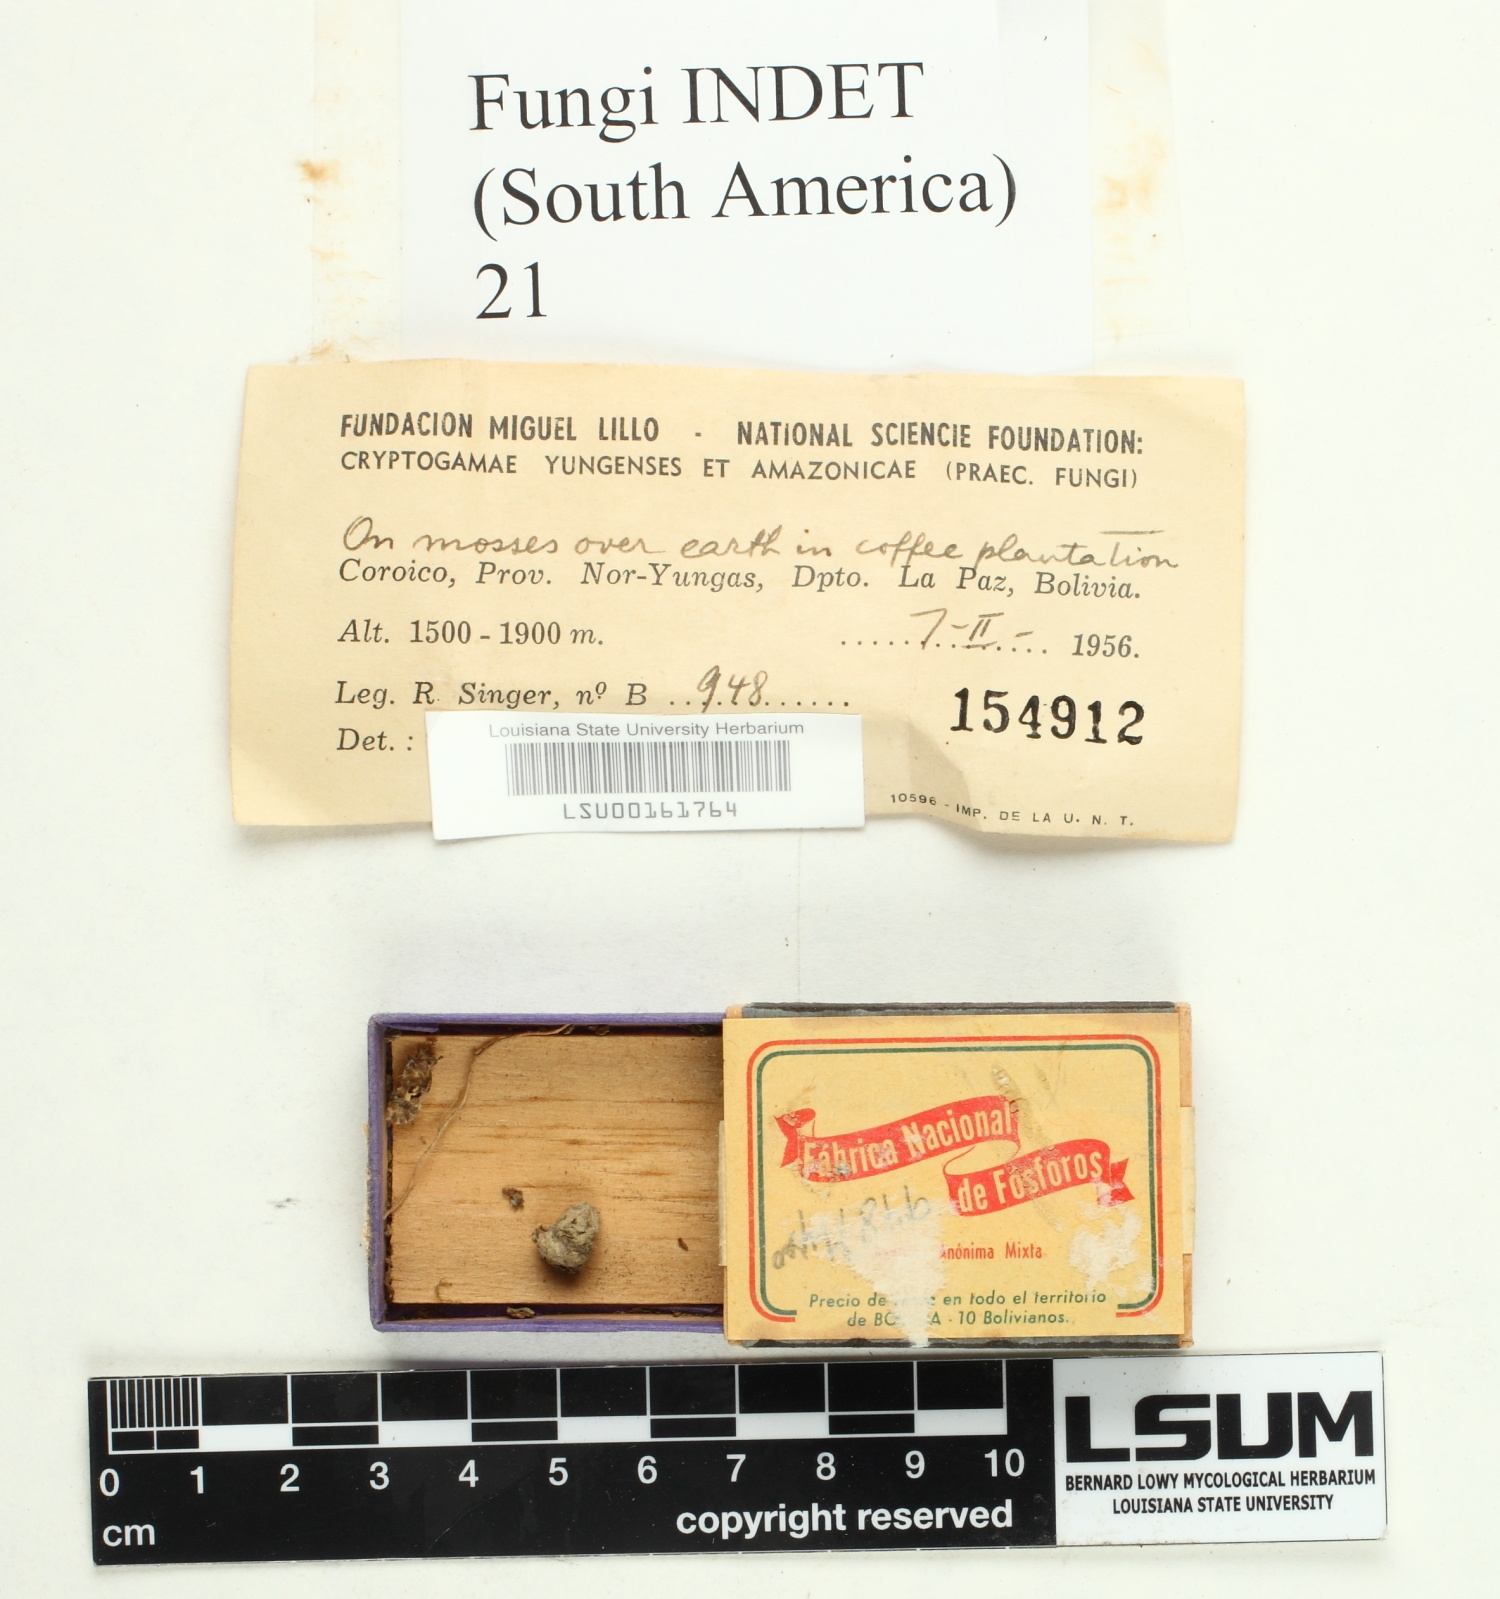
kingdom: Fungi
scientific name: Fungi
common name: Fungi
